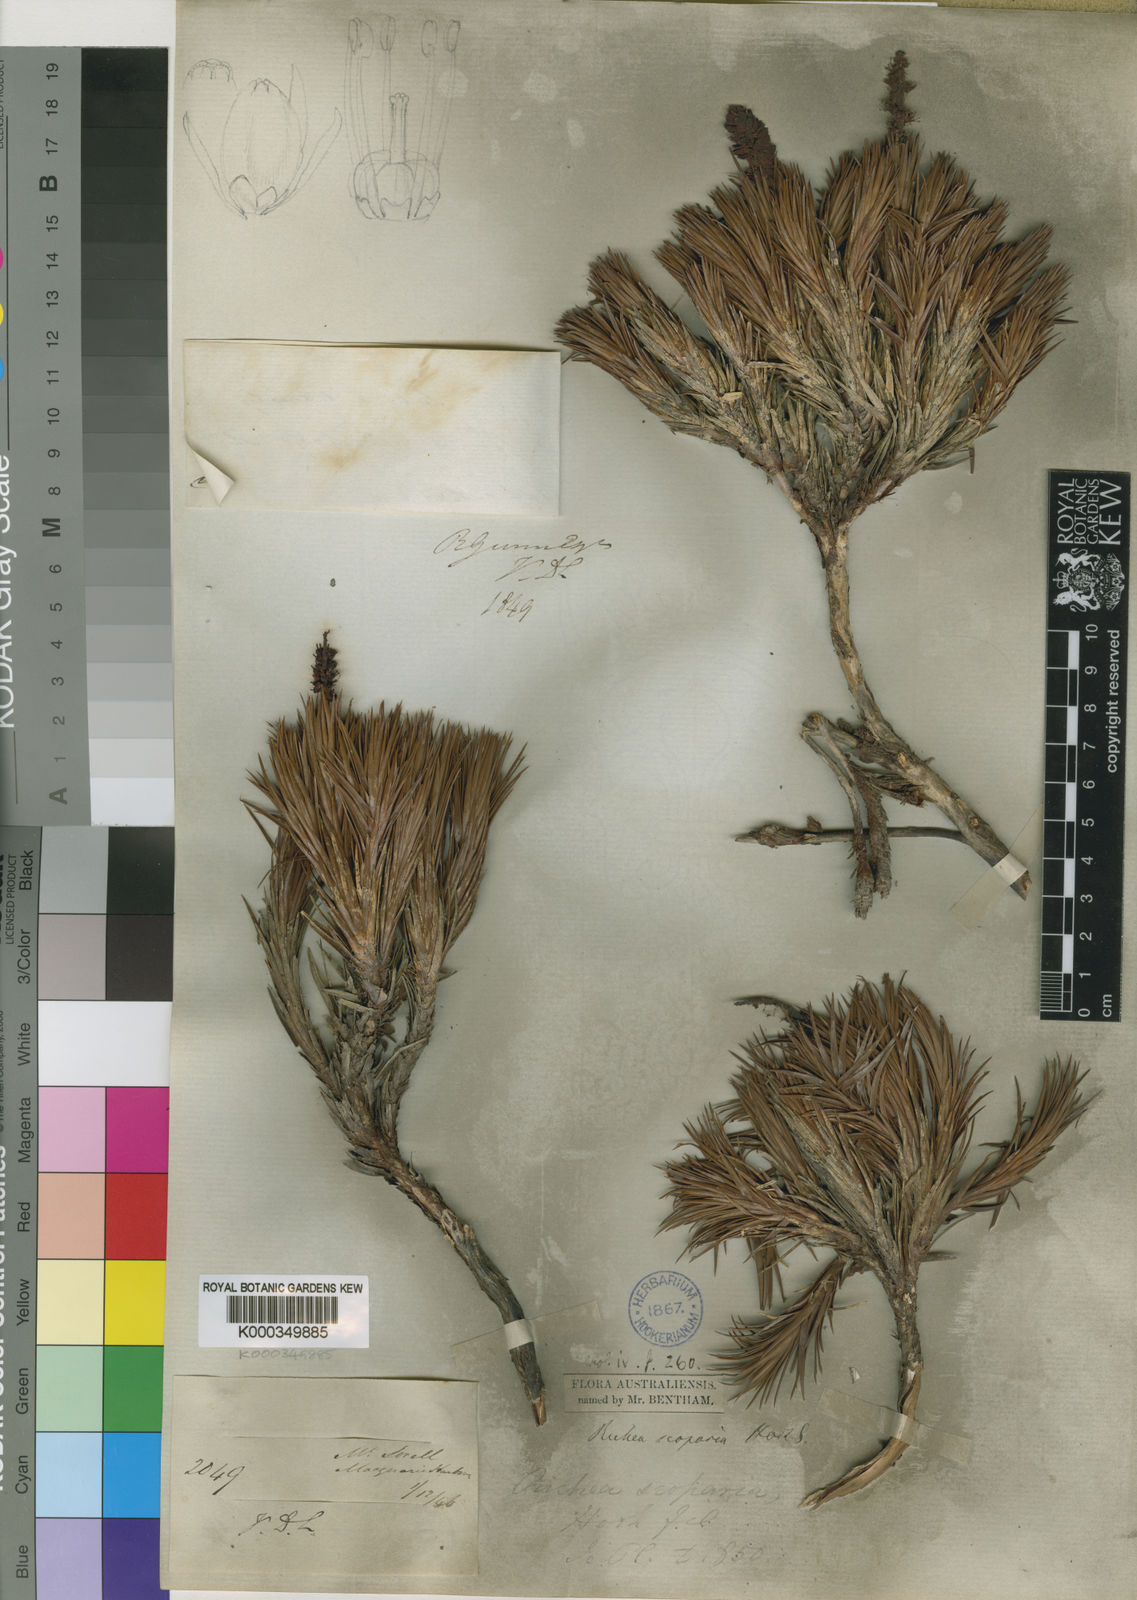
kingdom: Plantae
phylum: Tracheophyta
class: Magnoliopsida
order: Ericales
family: Ericaceae
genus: Dracophyllum
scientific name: Dracophyllum persistentifolium
